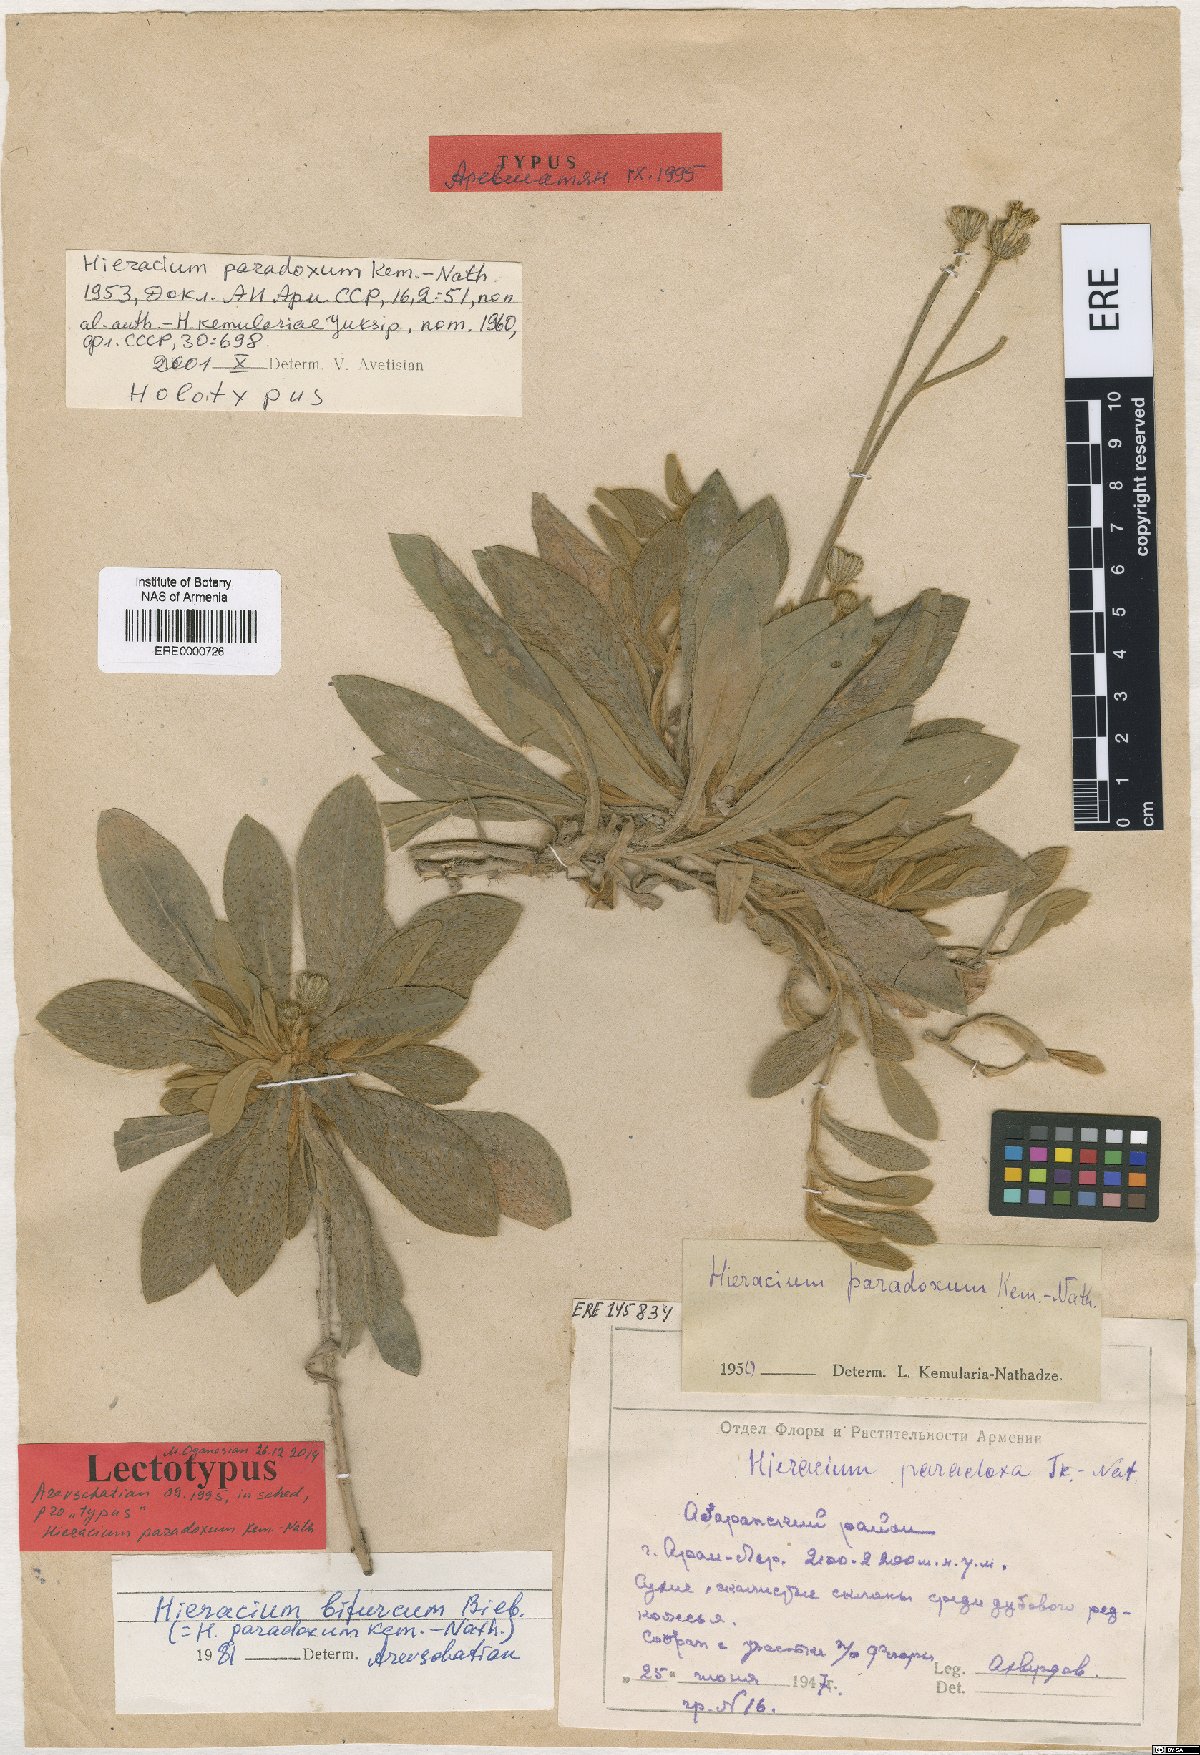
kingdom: Plantae
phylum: Tracheophyta
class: Magnoliopsida
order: Asterales
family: Asteraceae
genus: Pilosella
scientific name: Pilosella officinarum
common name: Mouse-ear hawkweed
